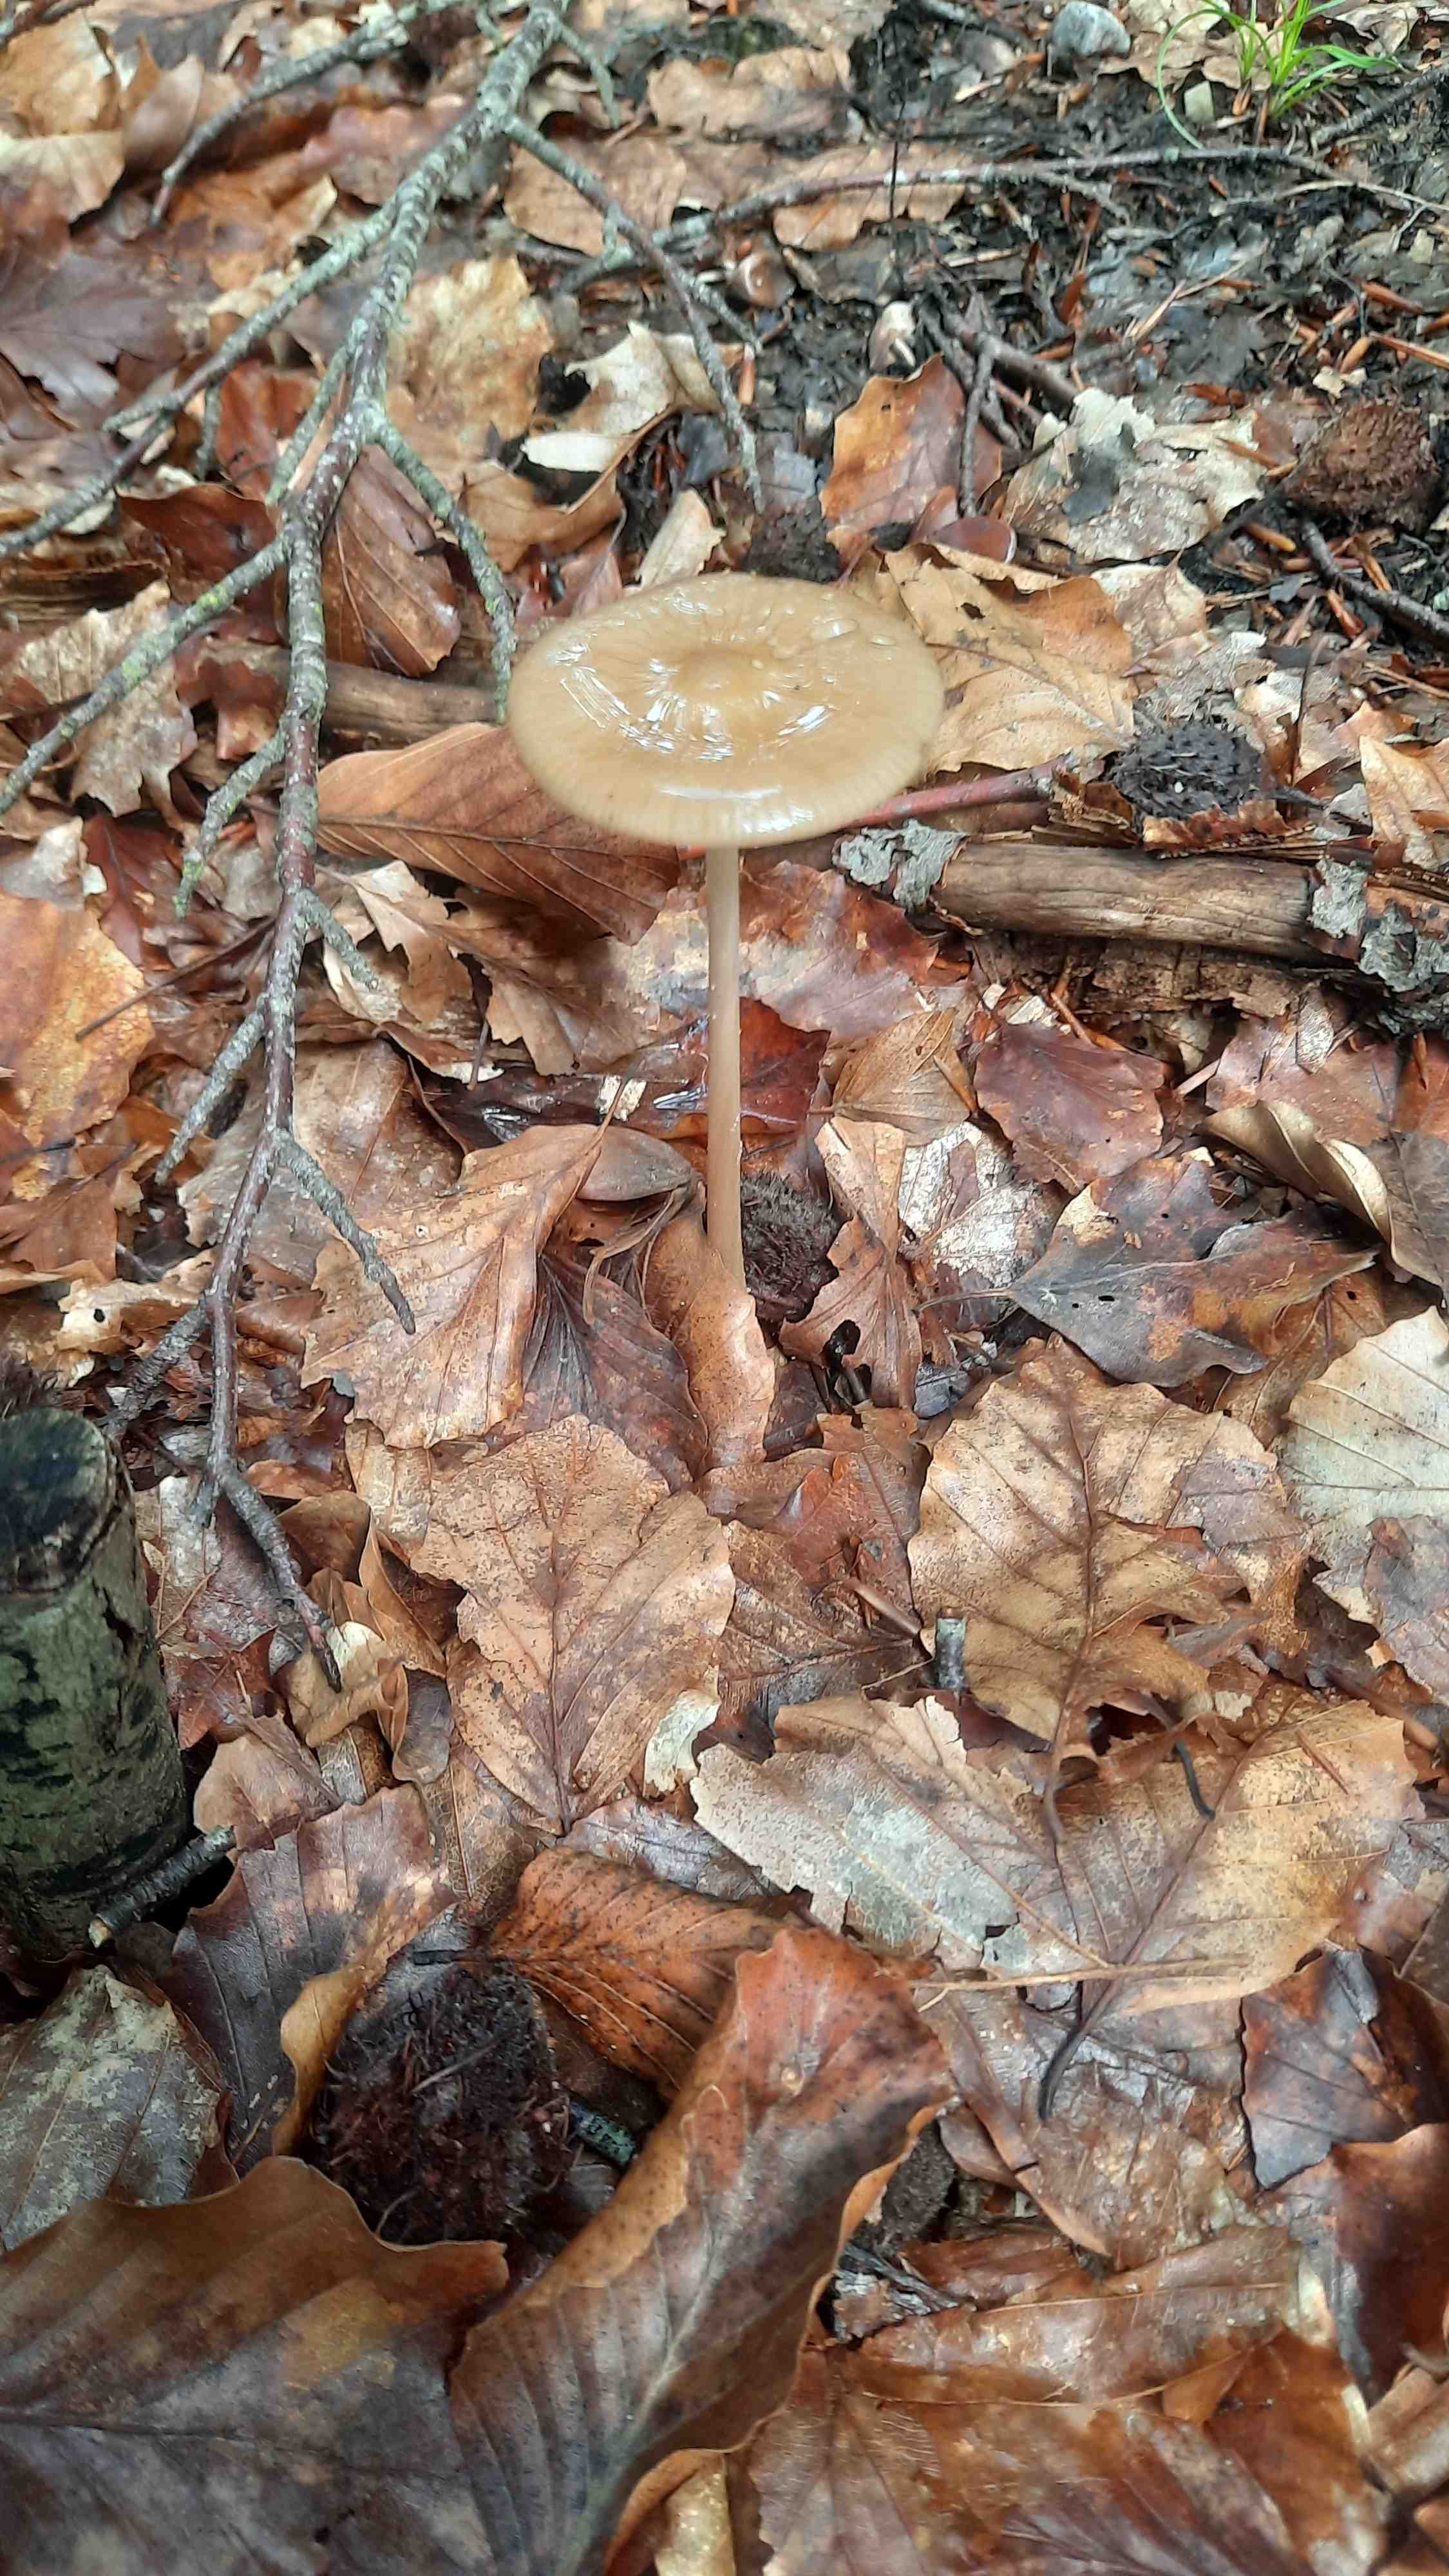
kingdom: Fungi
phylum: Basidiomycota
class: Agaricomycetes
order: Agaricales
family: Physalacriaceae
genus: Hymenopellis
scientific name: Hymenopellis radicata
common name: almindelig pælerodshat
